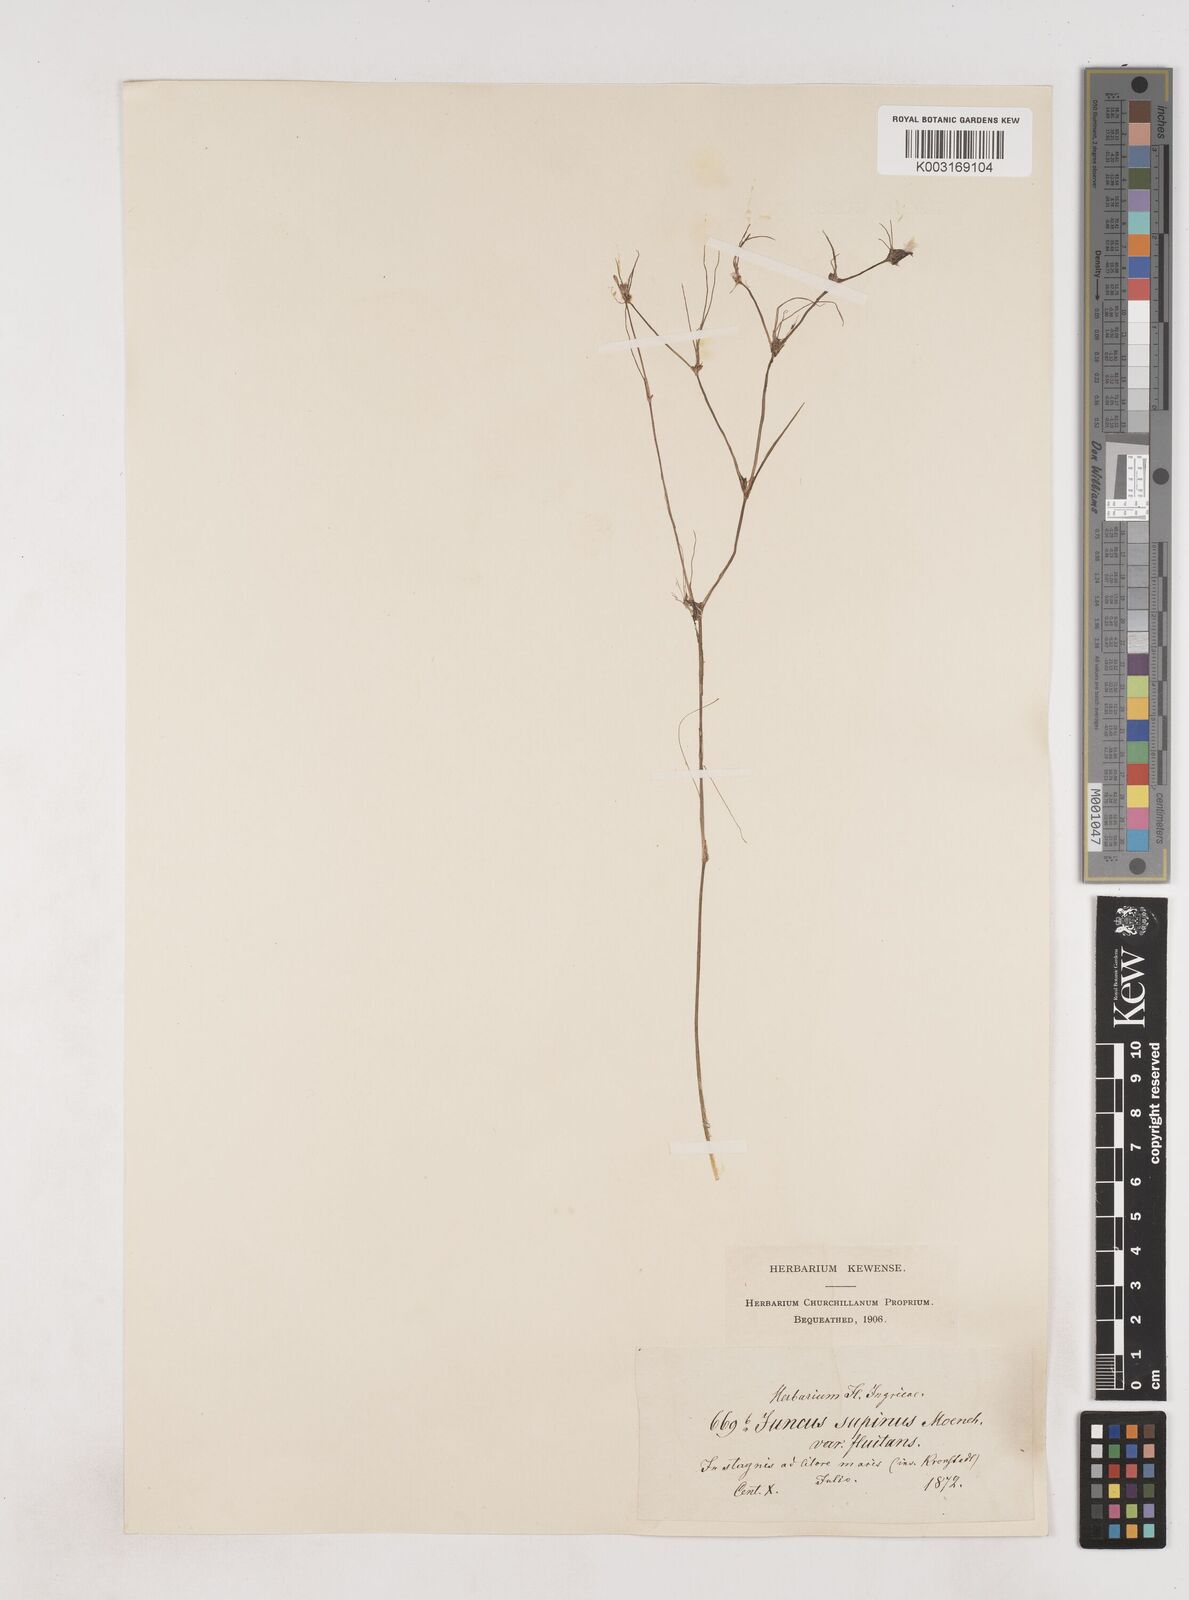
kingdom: Plantae
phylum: Tracheophyta
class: Liliopsida
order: Poales
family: Juncaceae
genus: Juncus
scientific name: Juncus bulbosus
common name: Bulbous rush
